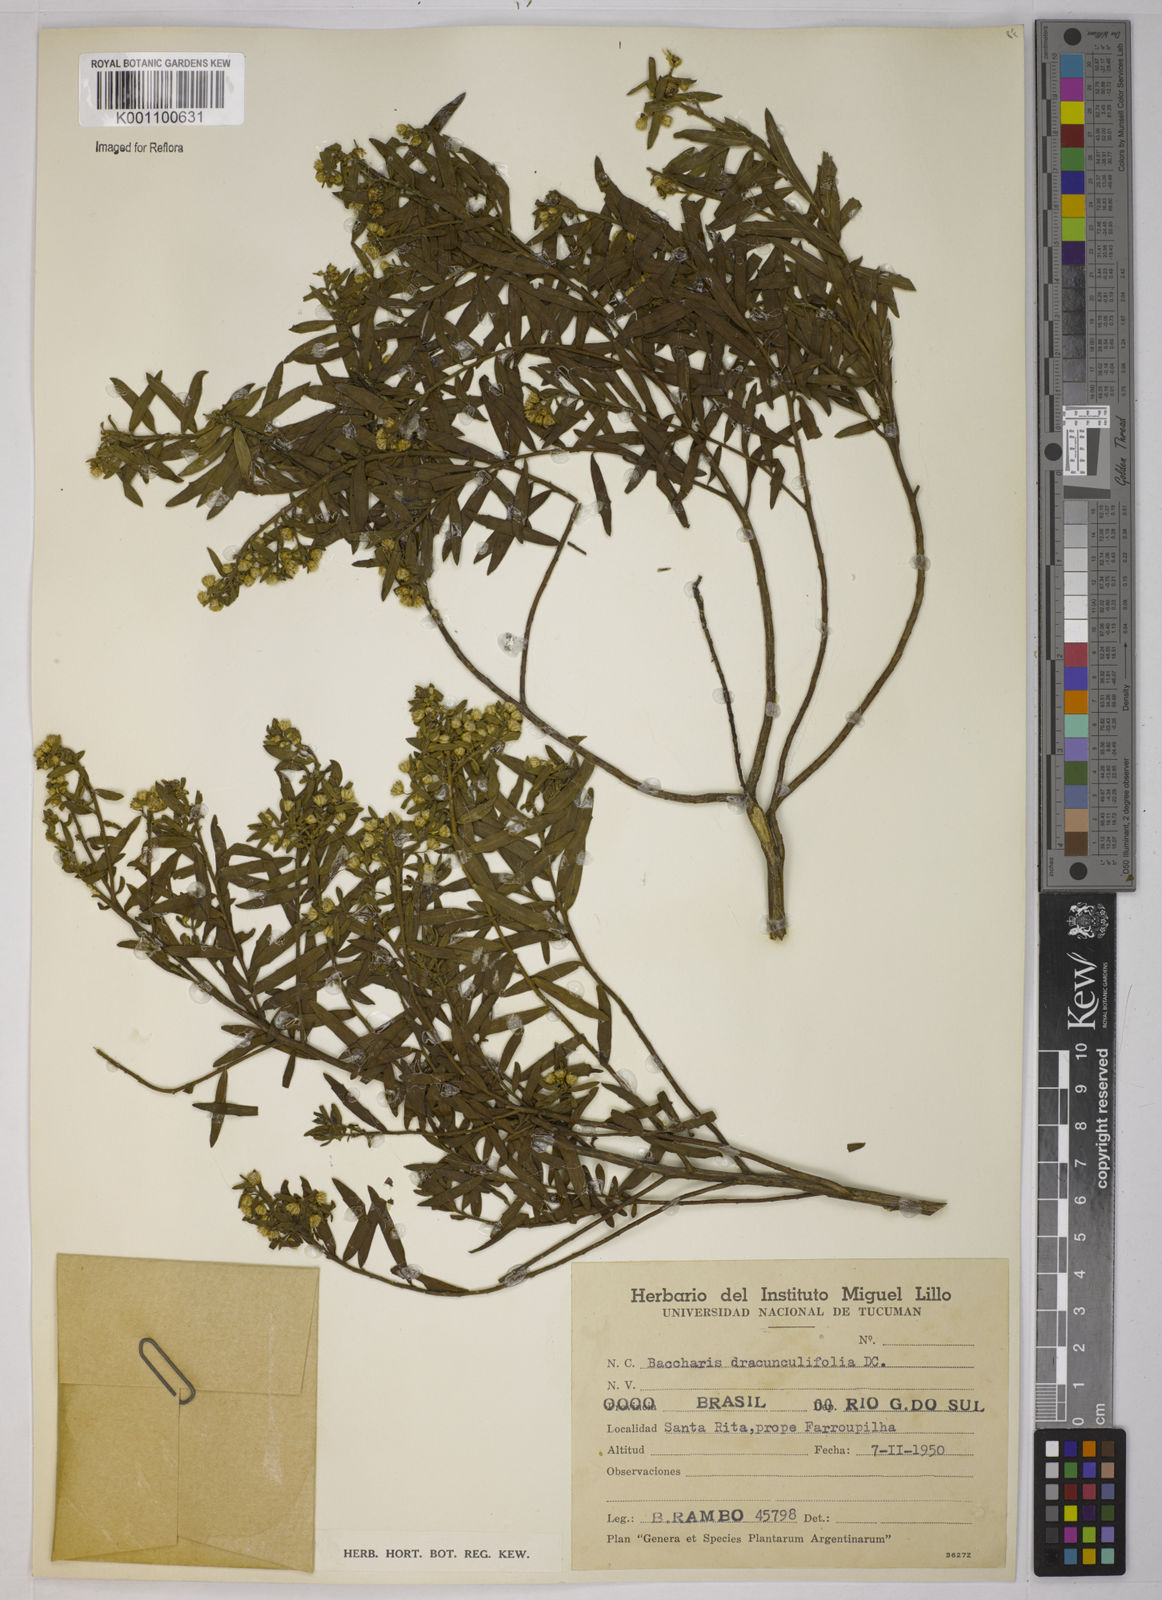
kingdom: Plantae
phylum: Tracheophyta
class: Magnoliopsida
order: Asterales
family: Asteraceae
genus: Baccharis
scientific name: Baccharis dracunculifolia
